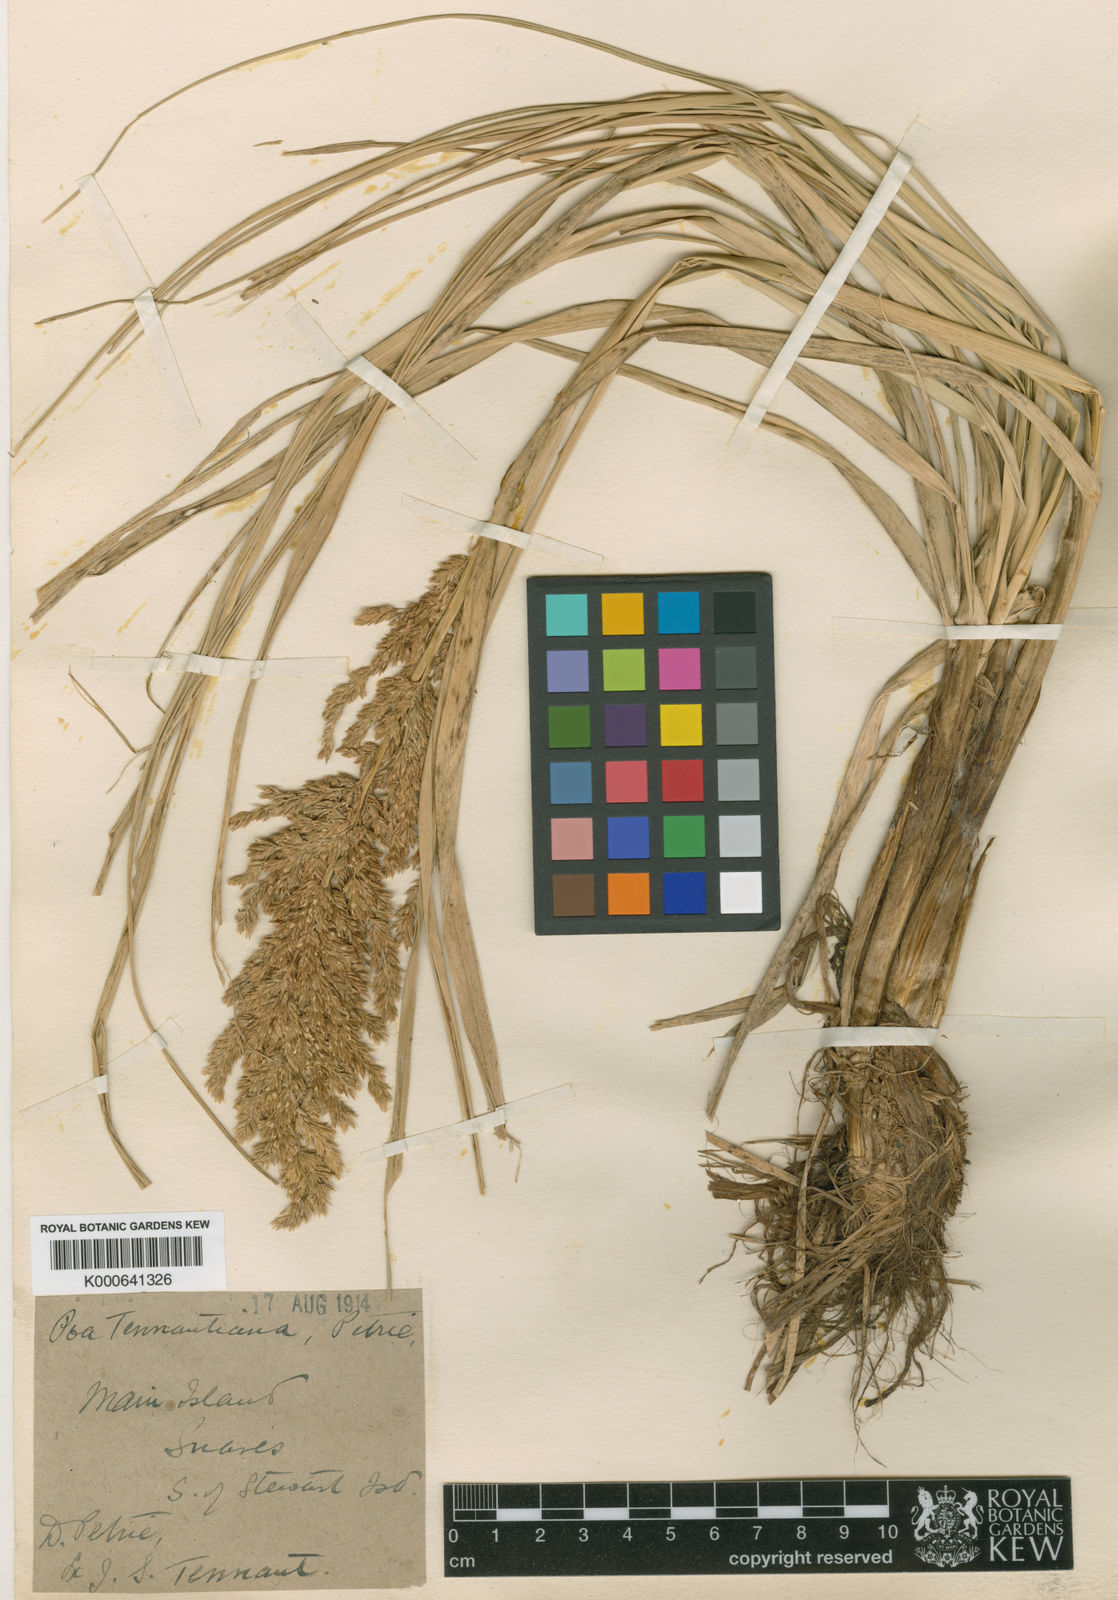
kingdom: Plantae
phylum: Tracheophyta
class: Liliopsida
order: Poales
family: Poaceae
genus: Poa
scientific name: Poa foliosa
